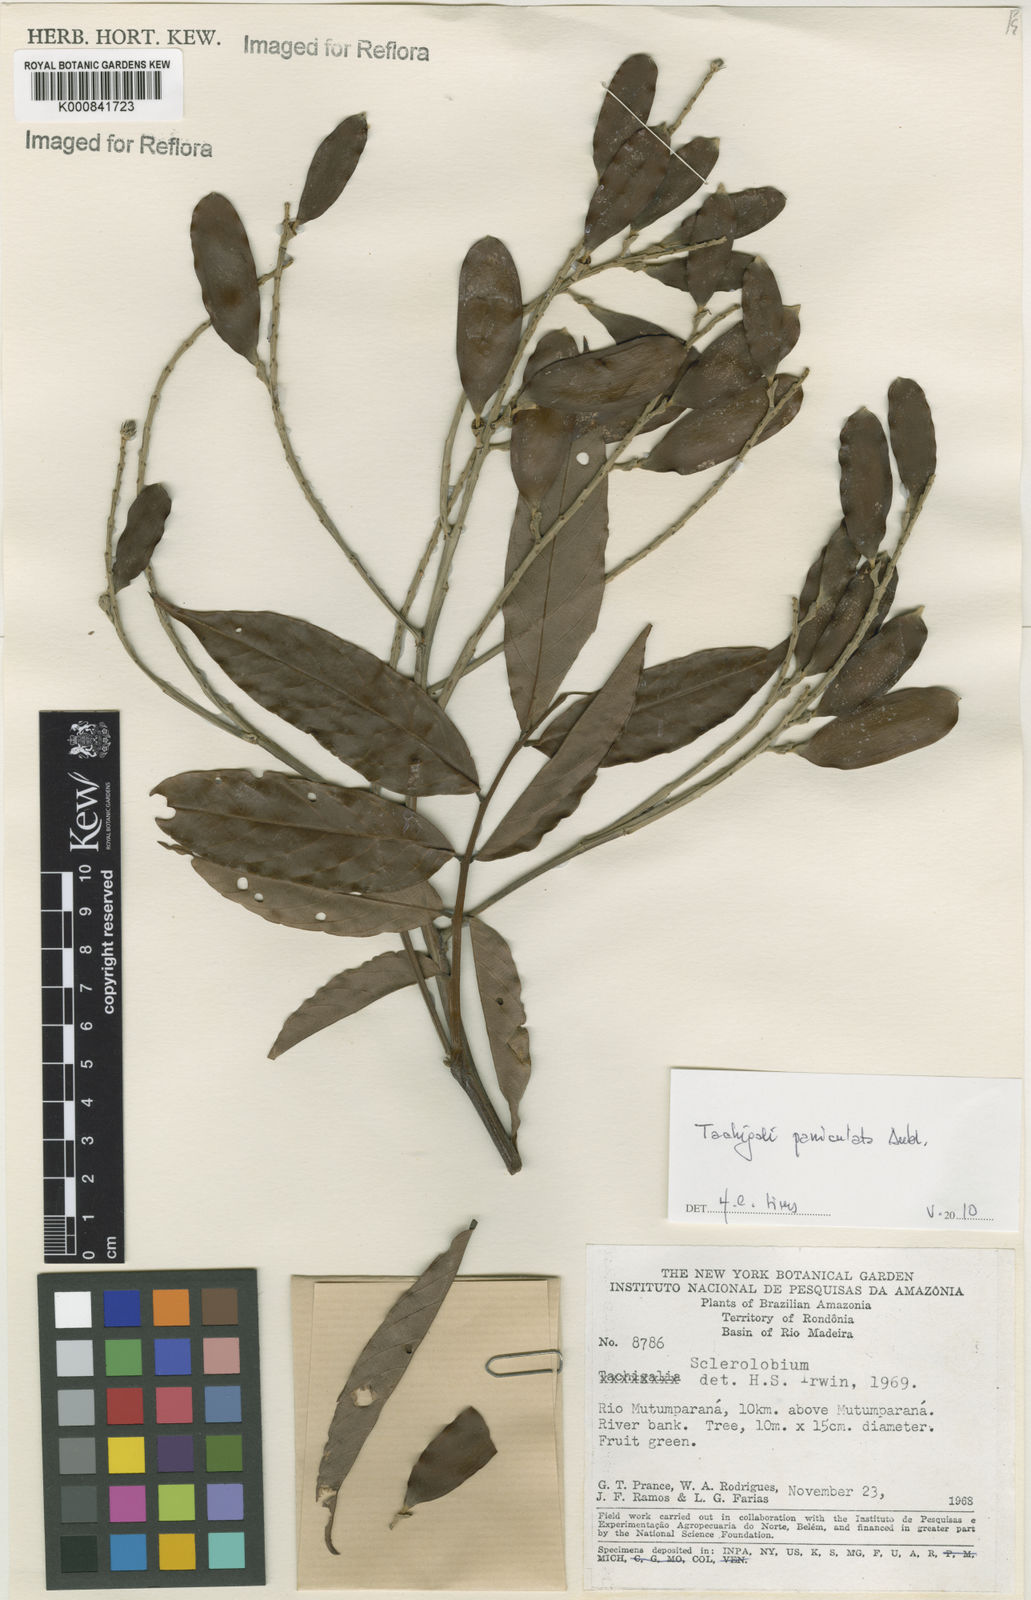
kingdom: Plantae
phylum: Tracheophyta
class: Magnoliopsida
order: Fabales
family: Fabaceae
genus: Tachigali
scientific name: Tachigali paniculata
